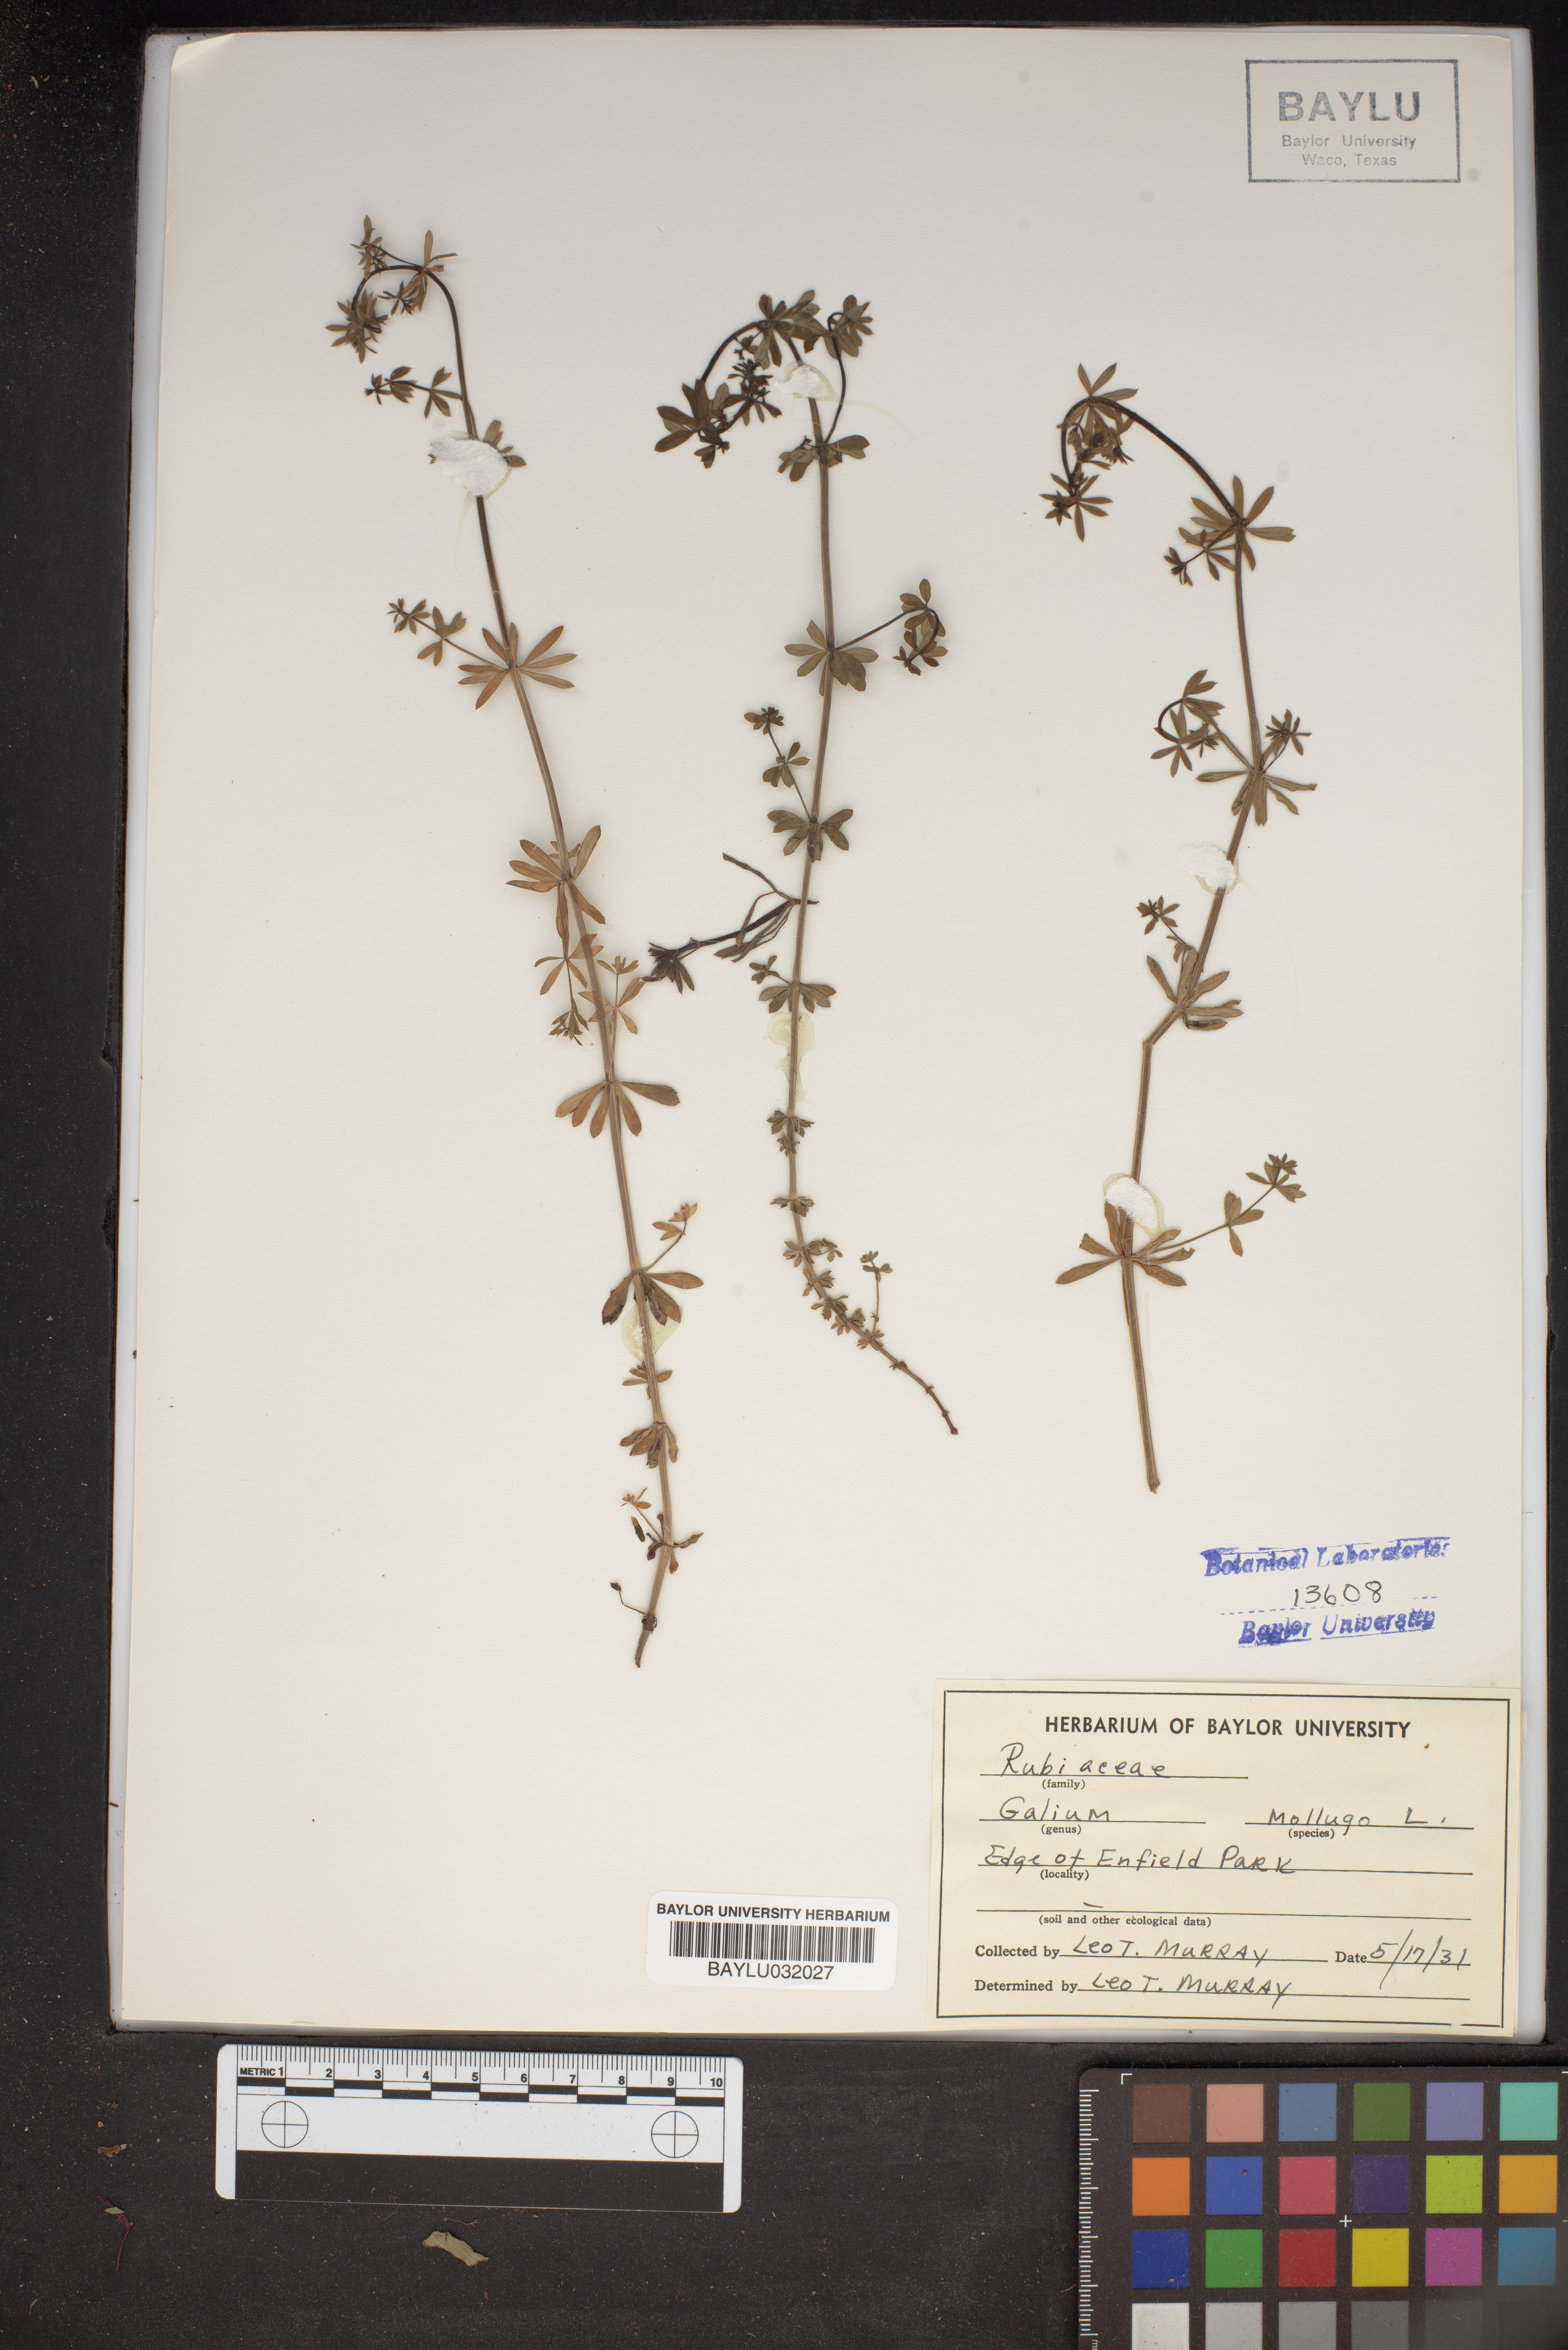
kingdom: Plantae
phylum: Tracheophyta
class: Magnoliopsida
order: Gentianales
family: Rubiaceae
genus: Galium
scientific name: Galium mollugo
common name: Hedge bedstraw
